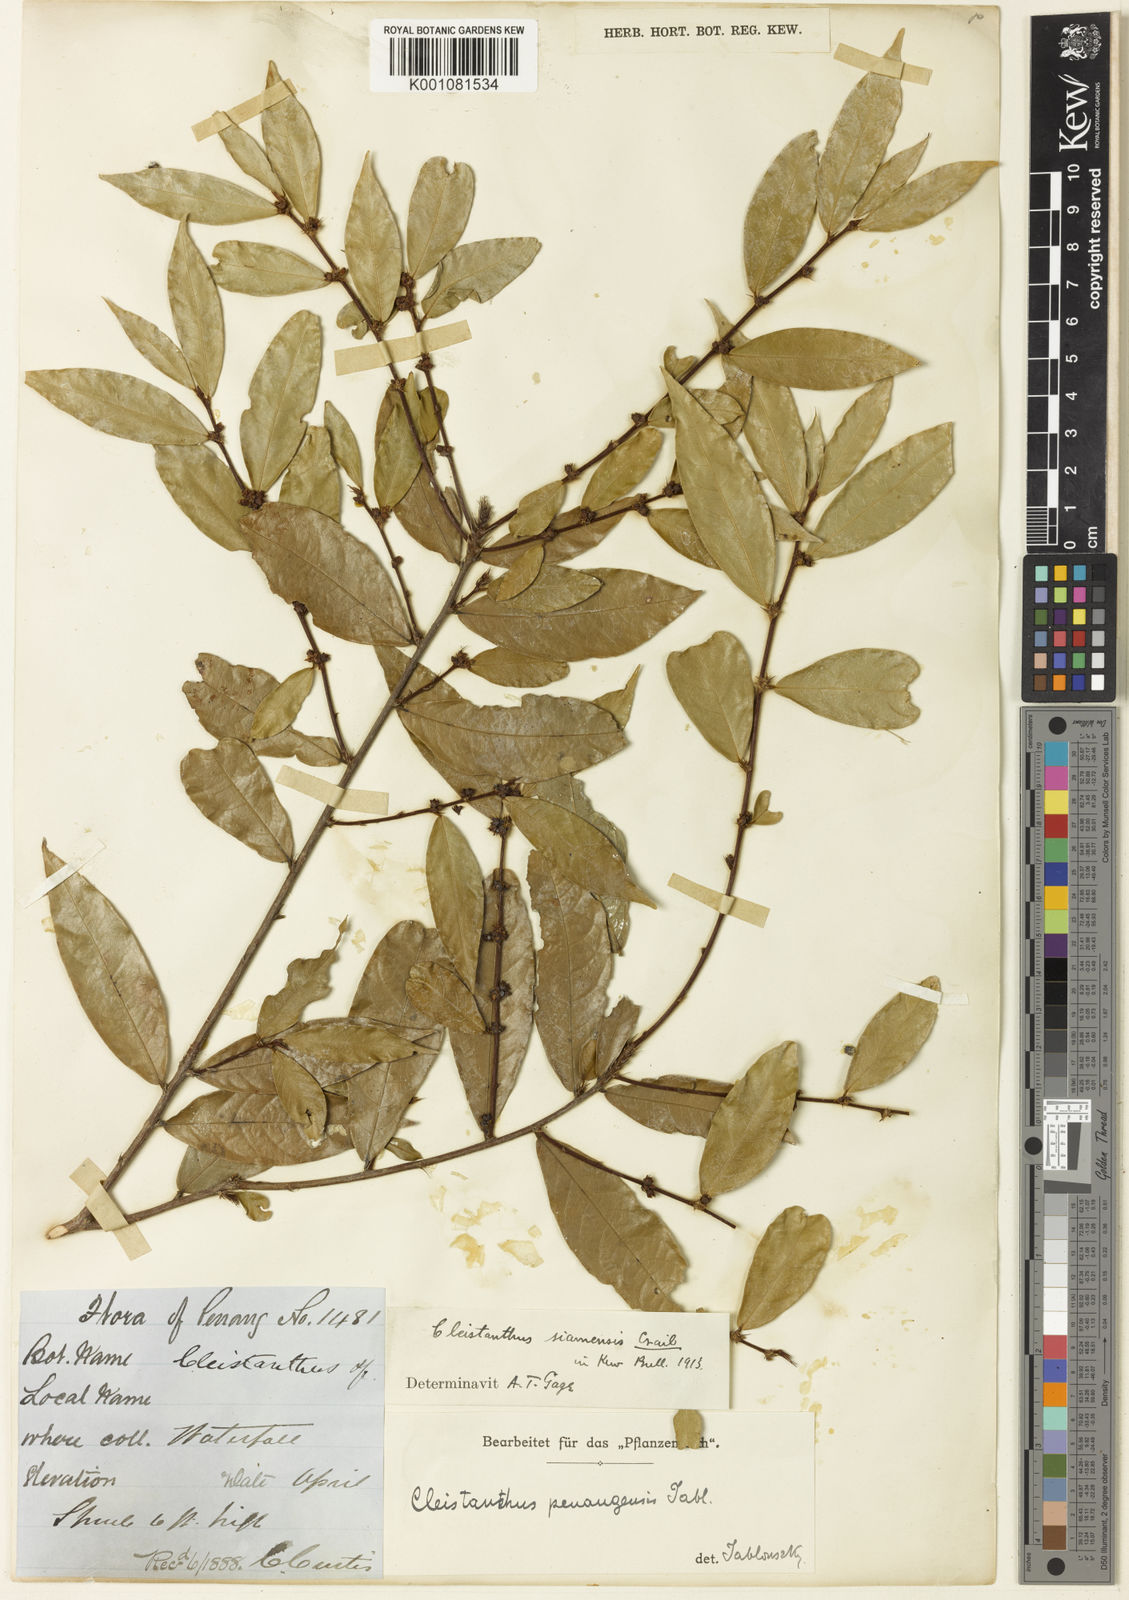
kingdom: Plantae
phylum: Tracheophyta
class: Magnoliopsida
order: Malpighiales
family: Phyllanthaceae
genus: Cleistanthus
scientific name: Cleistanthus hirsutulus
